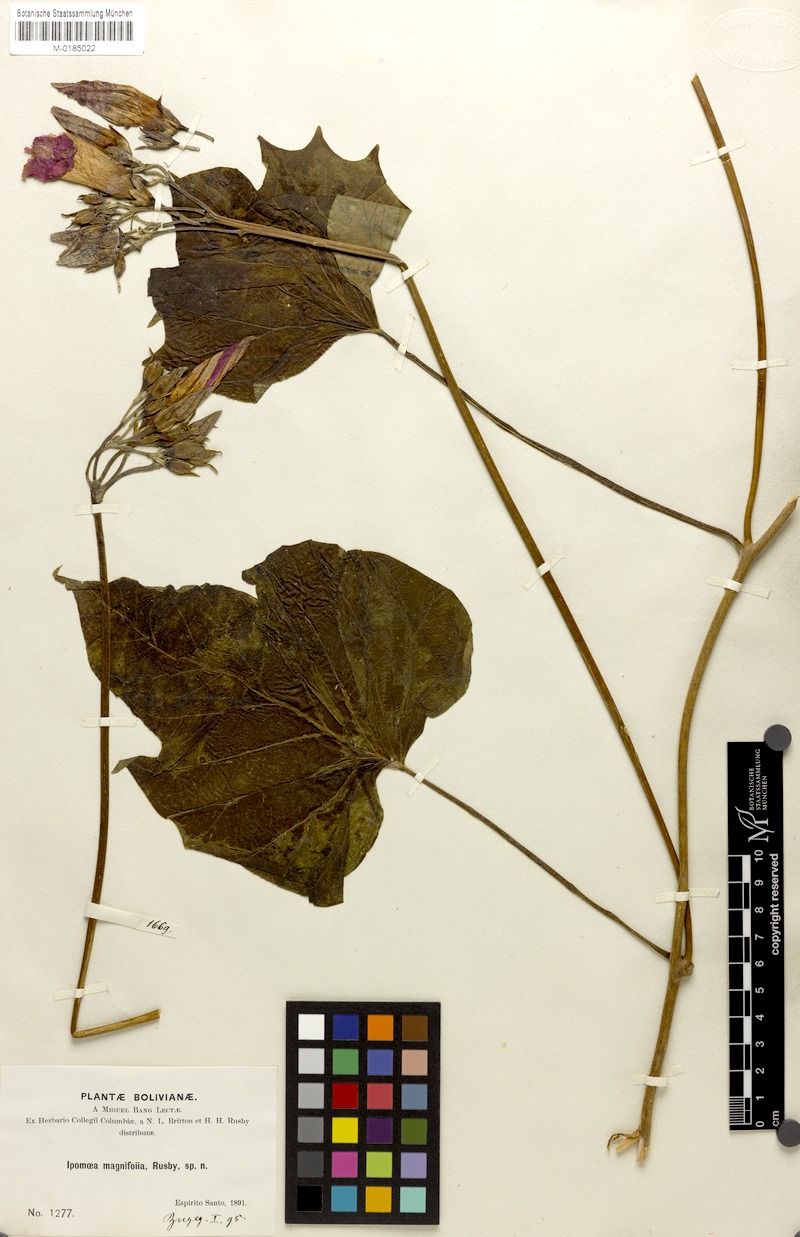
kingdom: Plantae
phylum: Tracheophyta
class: Magnoliopsida
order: Solanales
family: Convolvulaceae
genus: Ipomoea
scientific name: Ipomoea magnifolia
